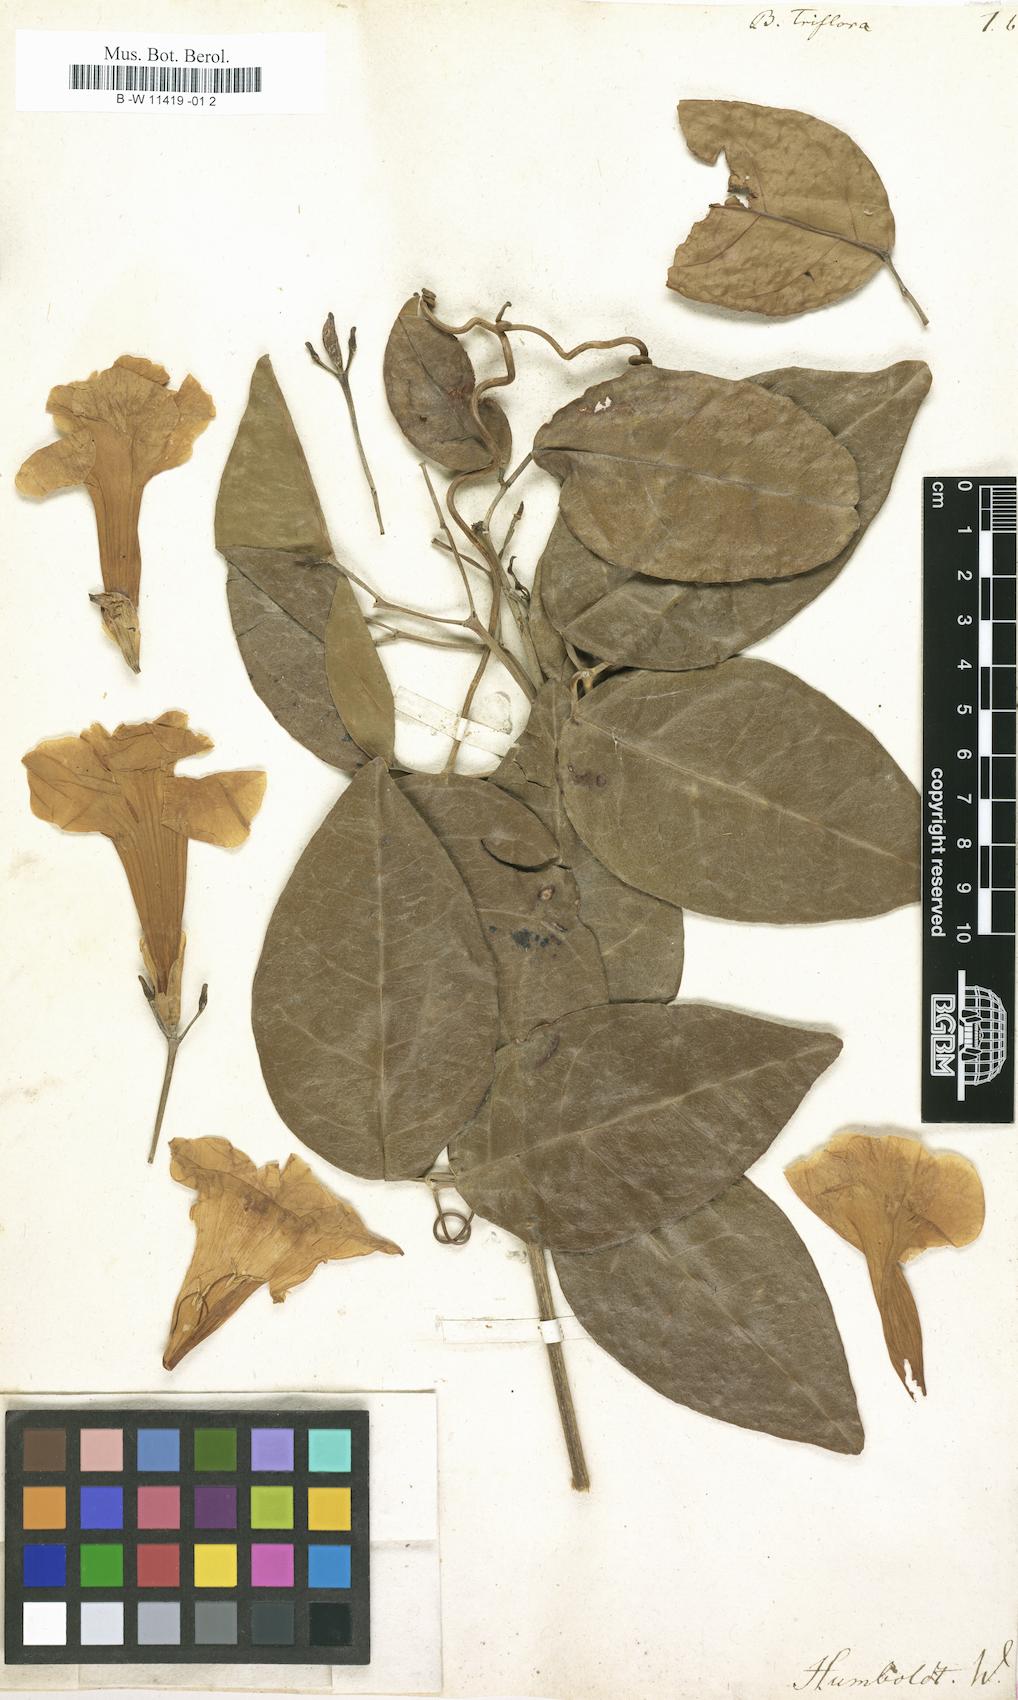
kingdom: Plantae
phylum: Tracheophyta
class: Magnoliopsida
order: Lamiales
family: Bignoniaceae
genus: Bignonia
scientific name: Bignonia triflora
